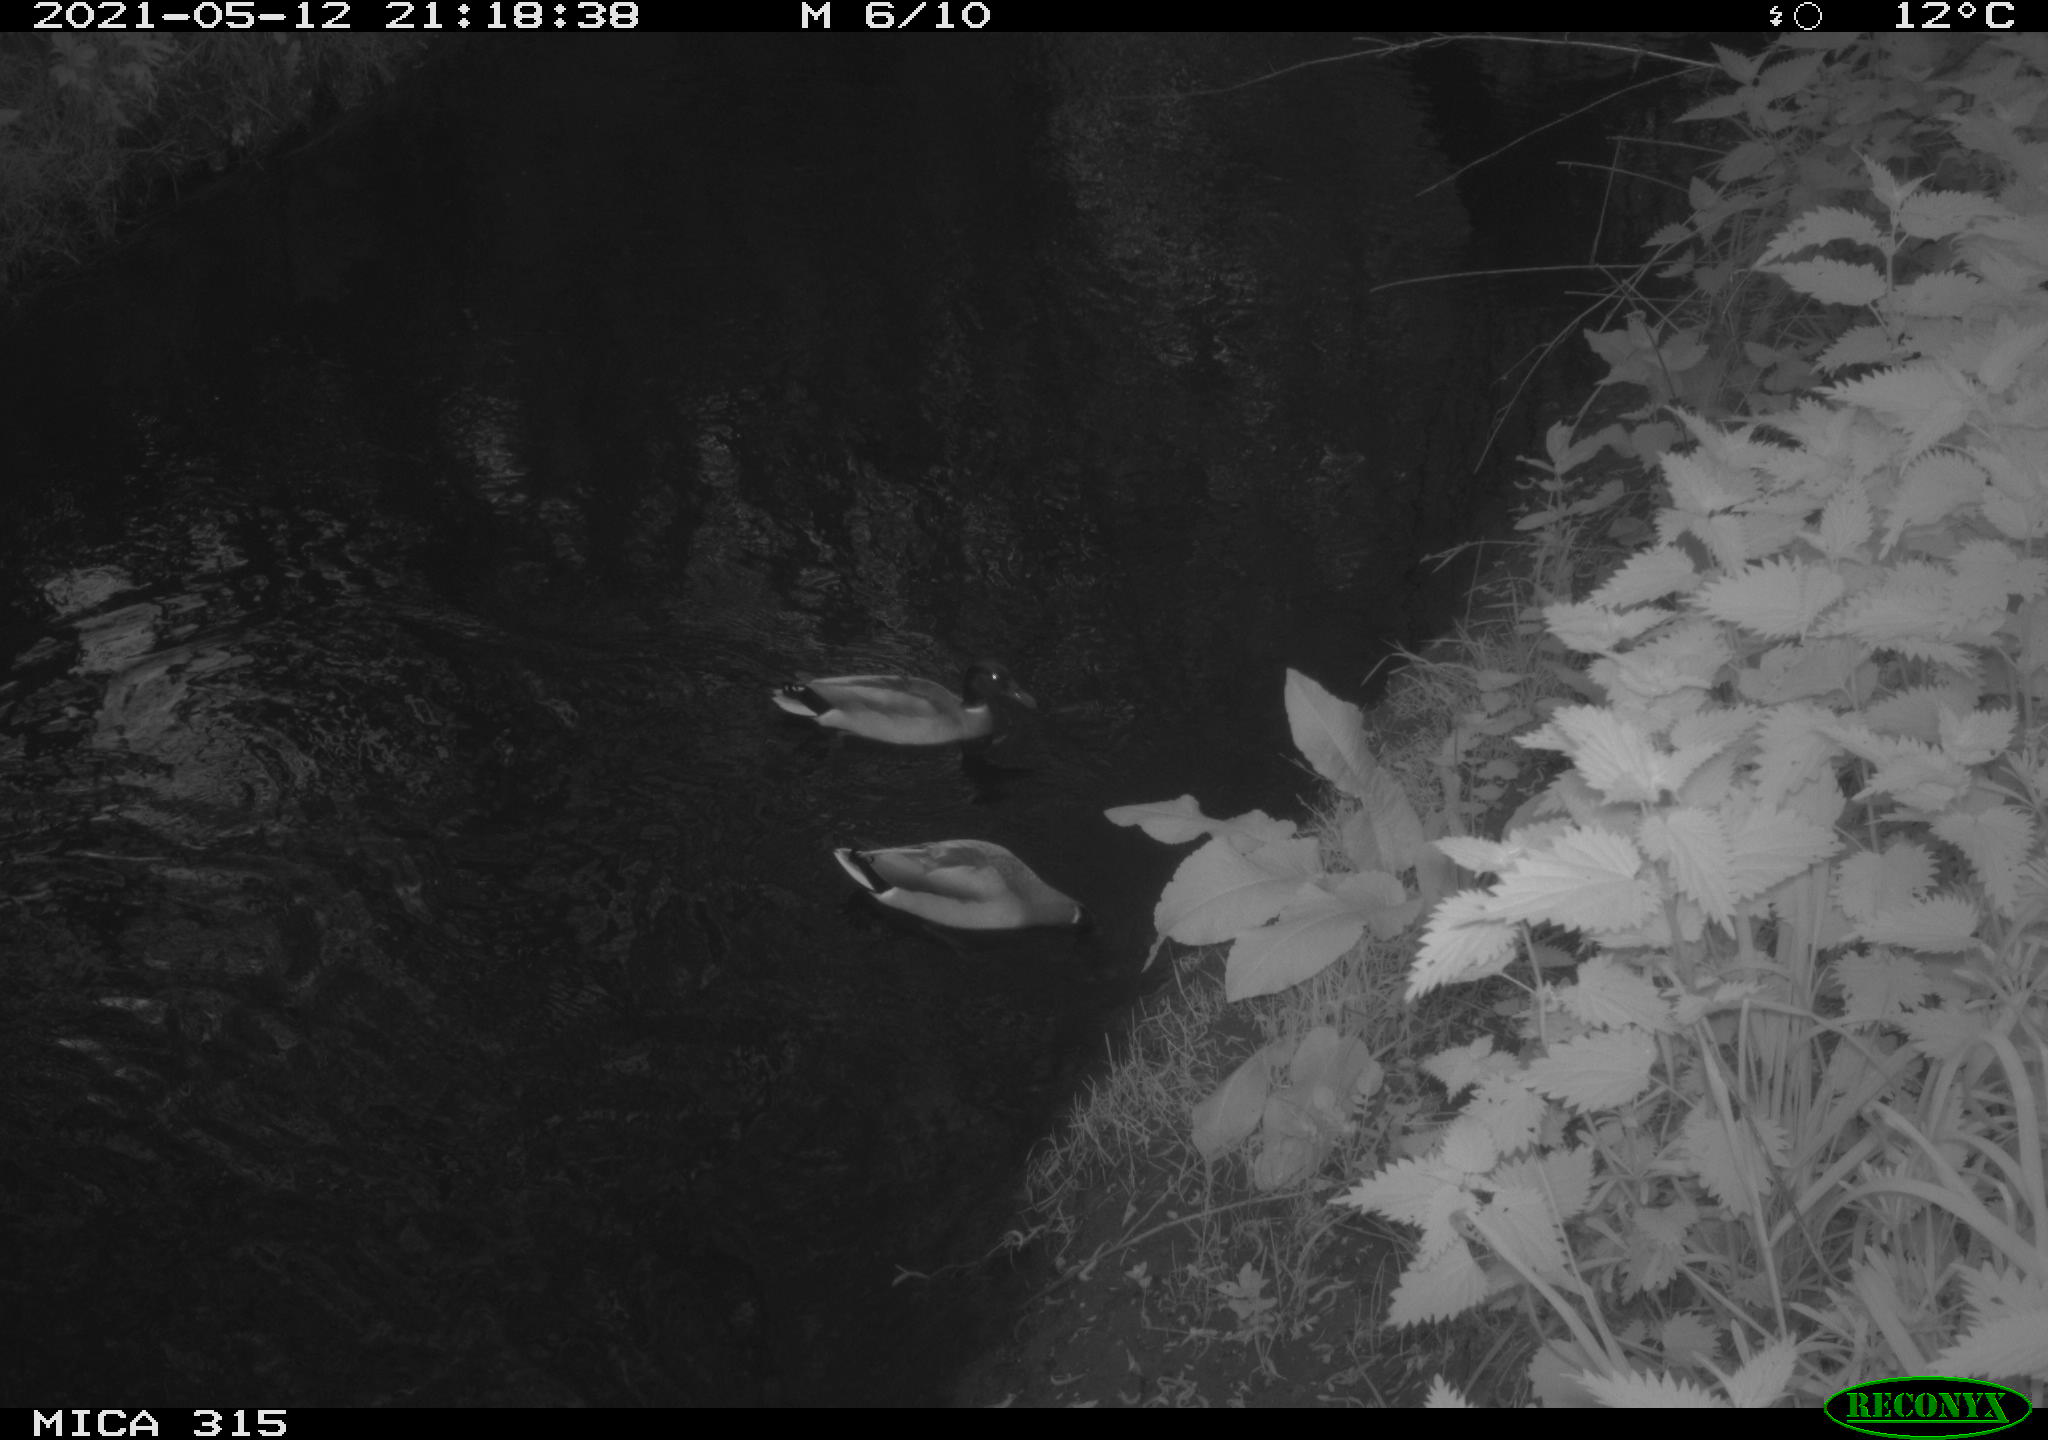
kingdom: Animalia
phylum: Chordata
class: Aves
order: Anseriformes
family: Anatidae
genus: Anas
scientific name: Anas
